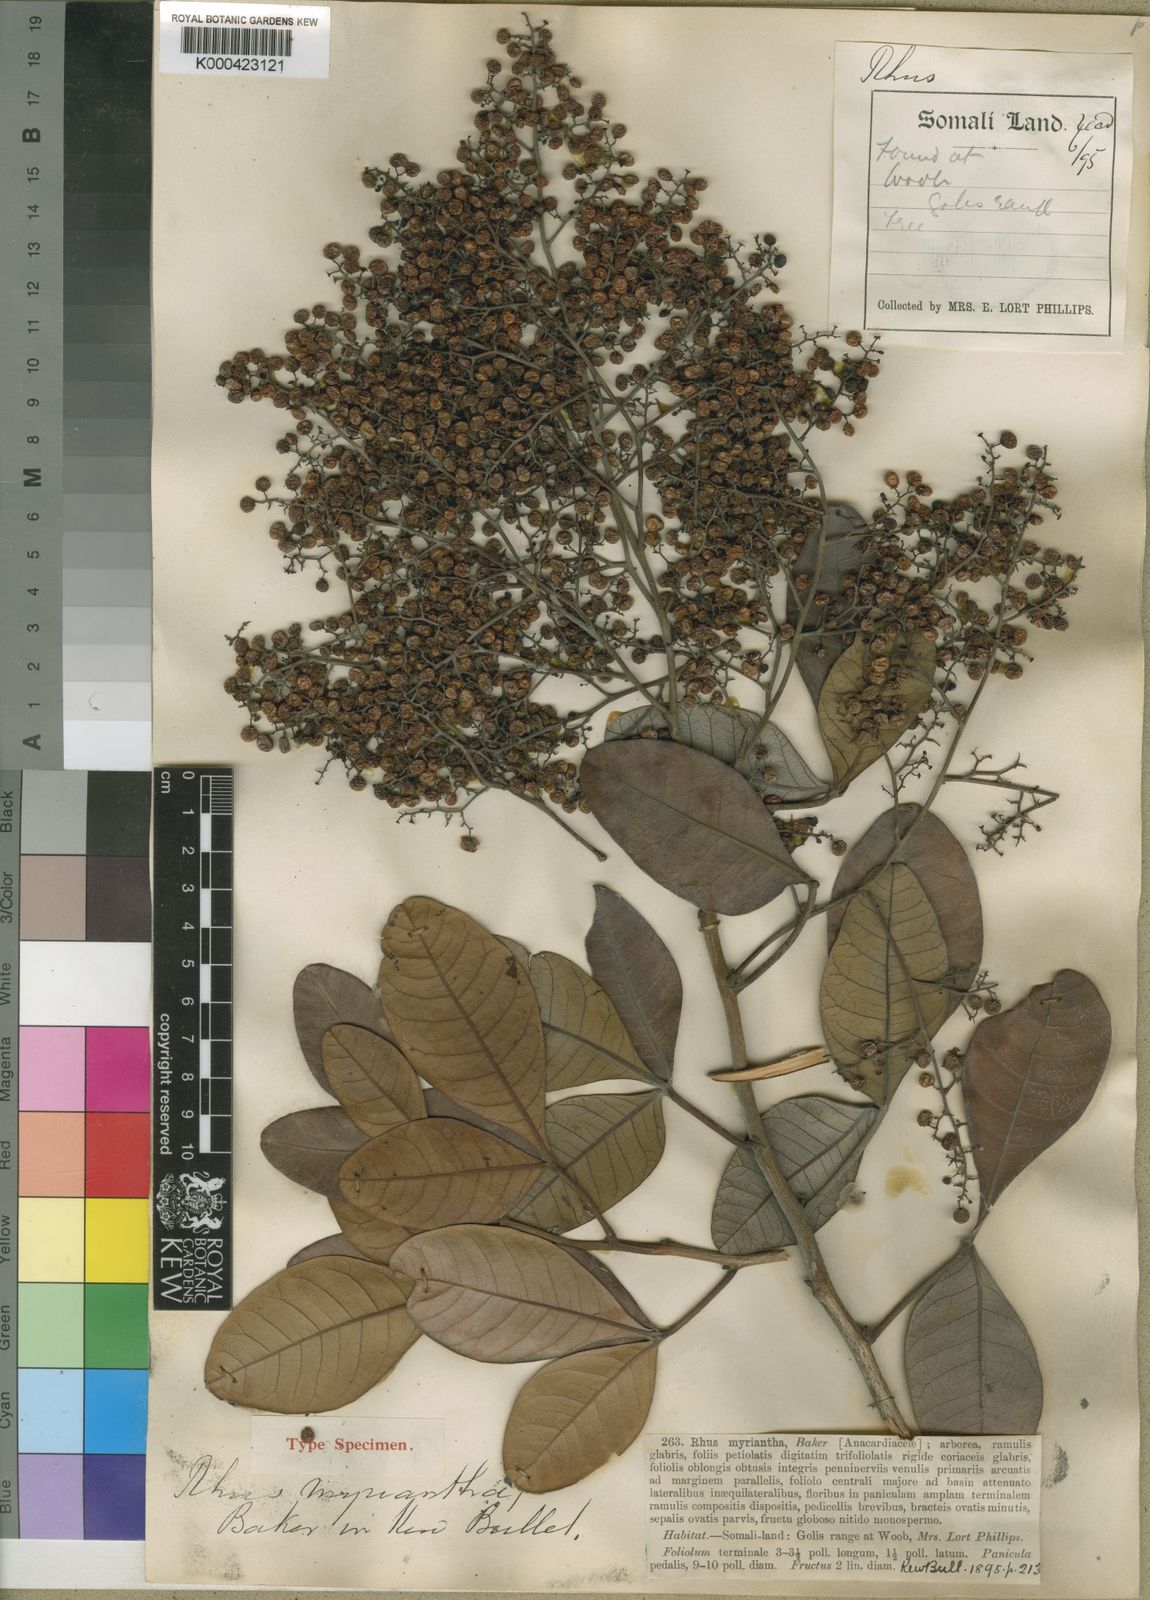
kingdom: Plantae
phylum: Tracheophyta
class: Magnoliopsida
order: Sapindales
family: Anacardiaceae
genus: Searsia
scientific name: Searsia somalensis
